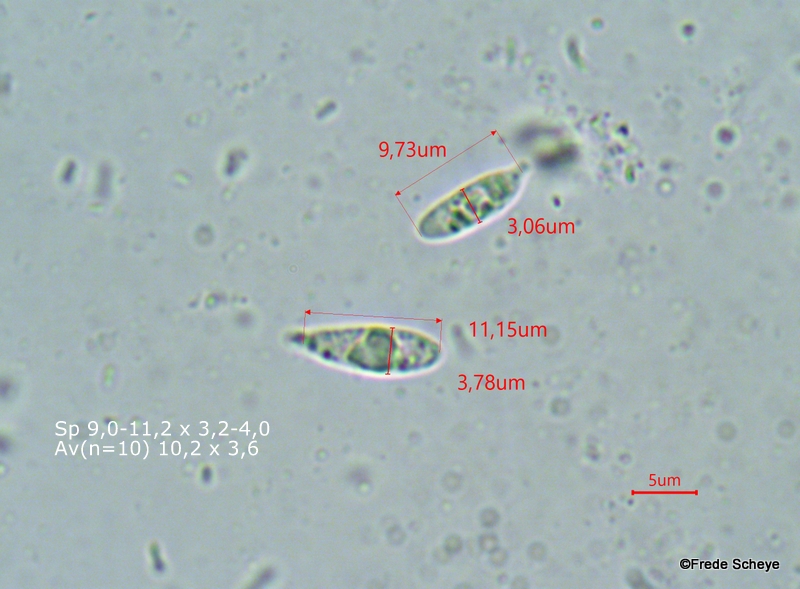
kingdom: Fungi
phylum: Basidiomycota
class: Agaricomycetes
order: Agaricales
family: Omphalotaceae
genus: Collybiopsis
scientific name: Collybiopsis ramealis
